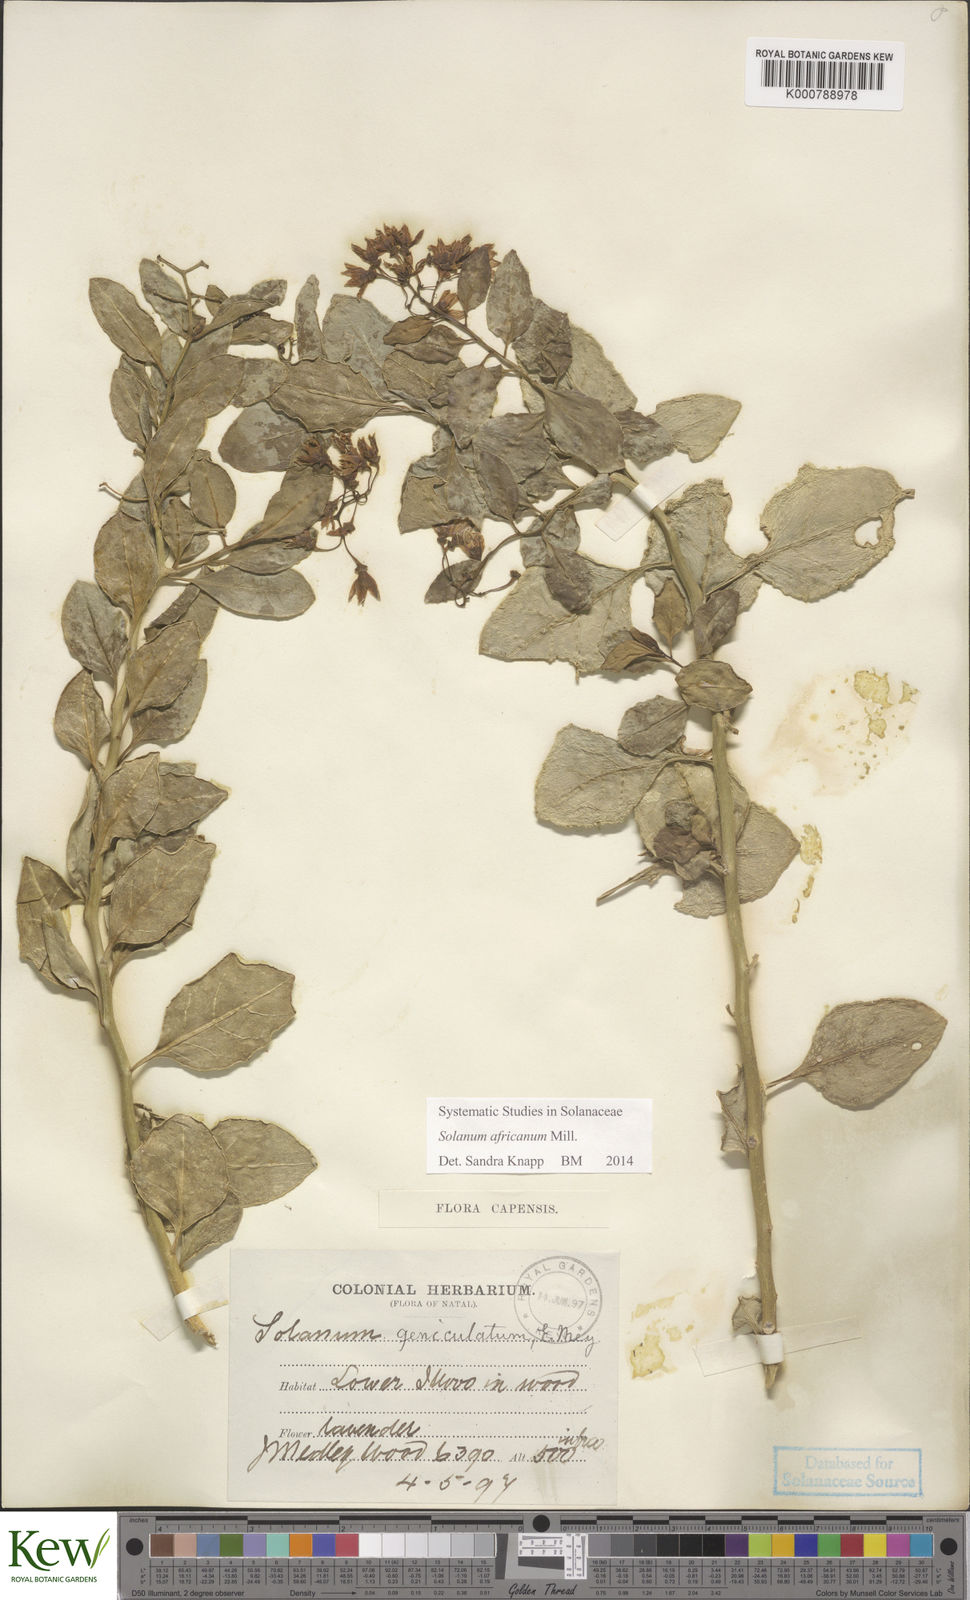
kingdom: Plantae
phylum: Tracheophyta
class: Magnoliopsida
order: Solanales
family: Solanaceae
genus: Solanum
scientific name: Solanum africanum
